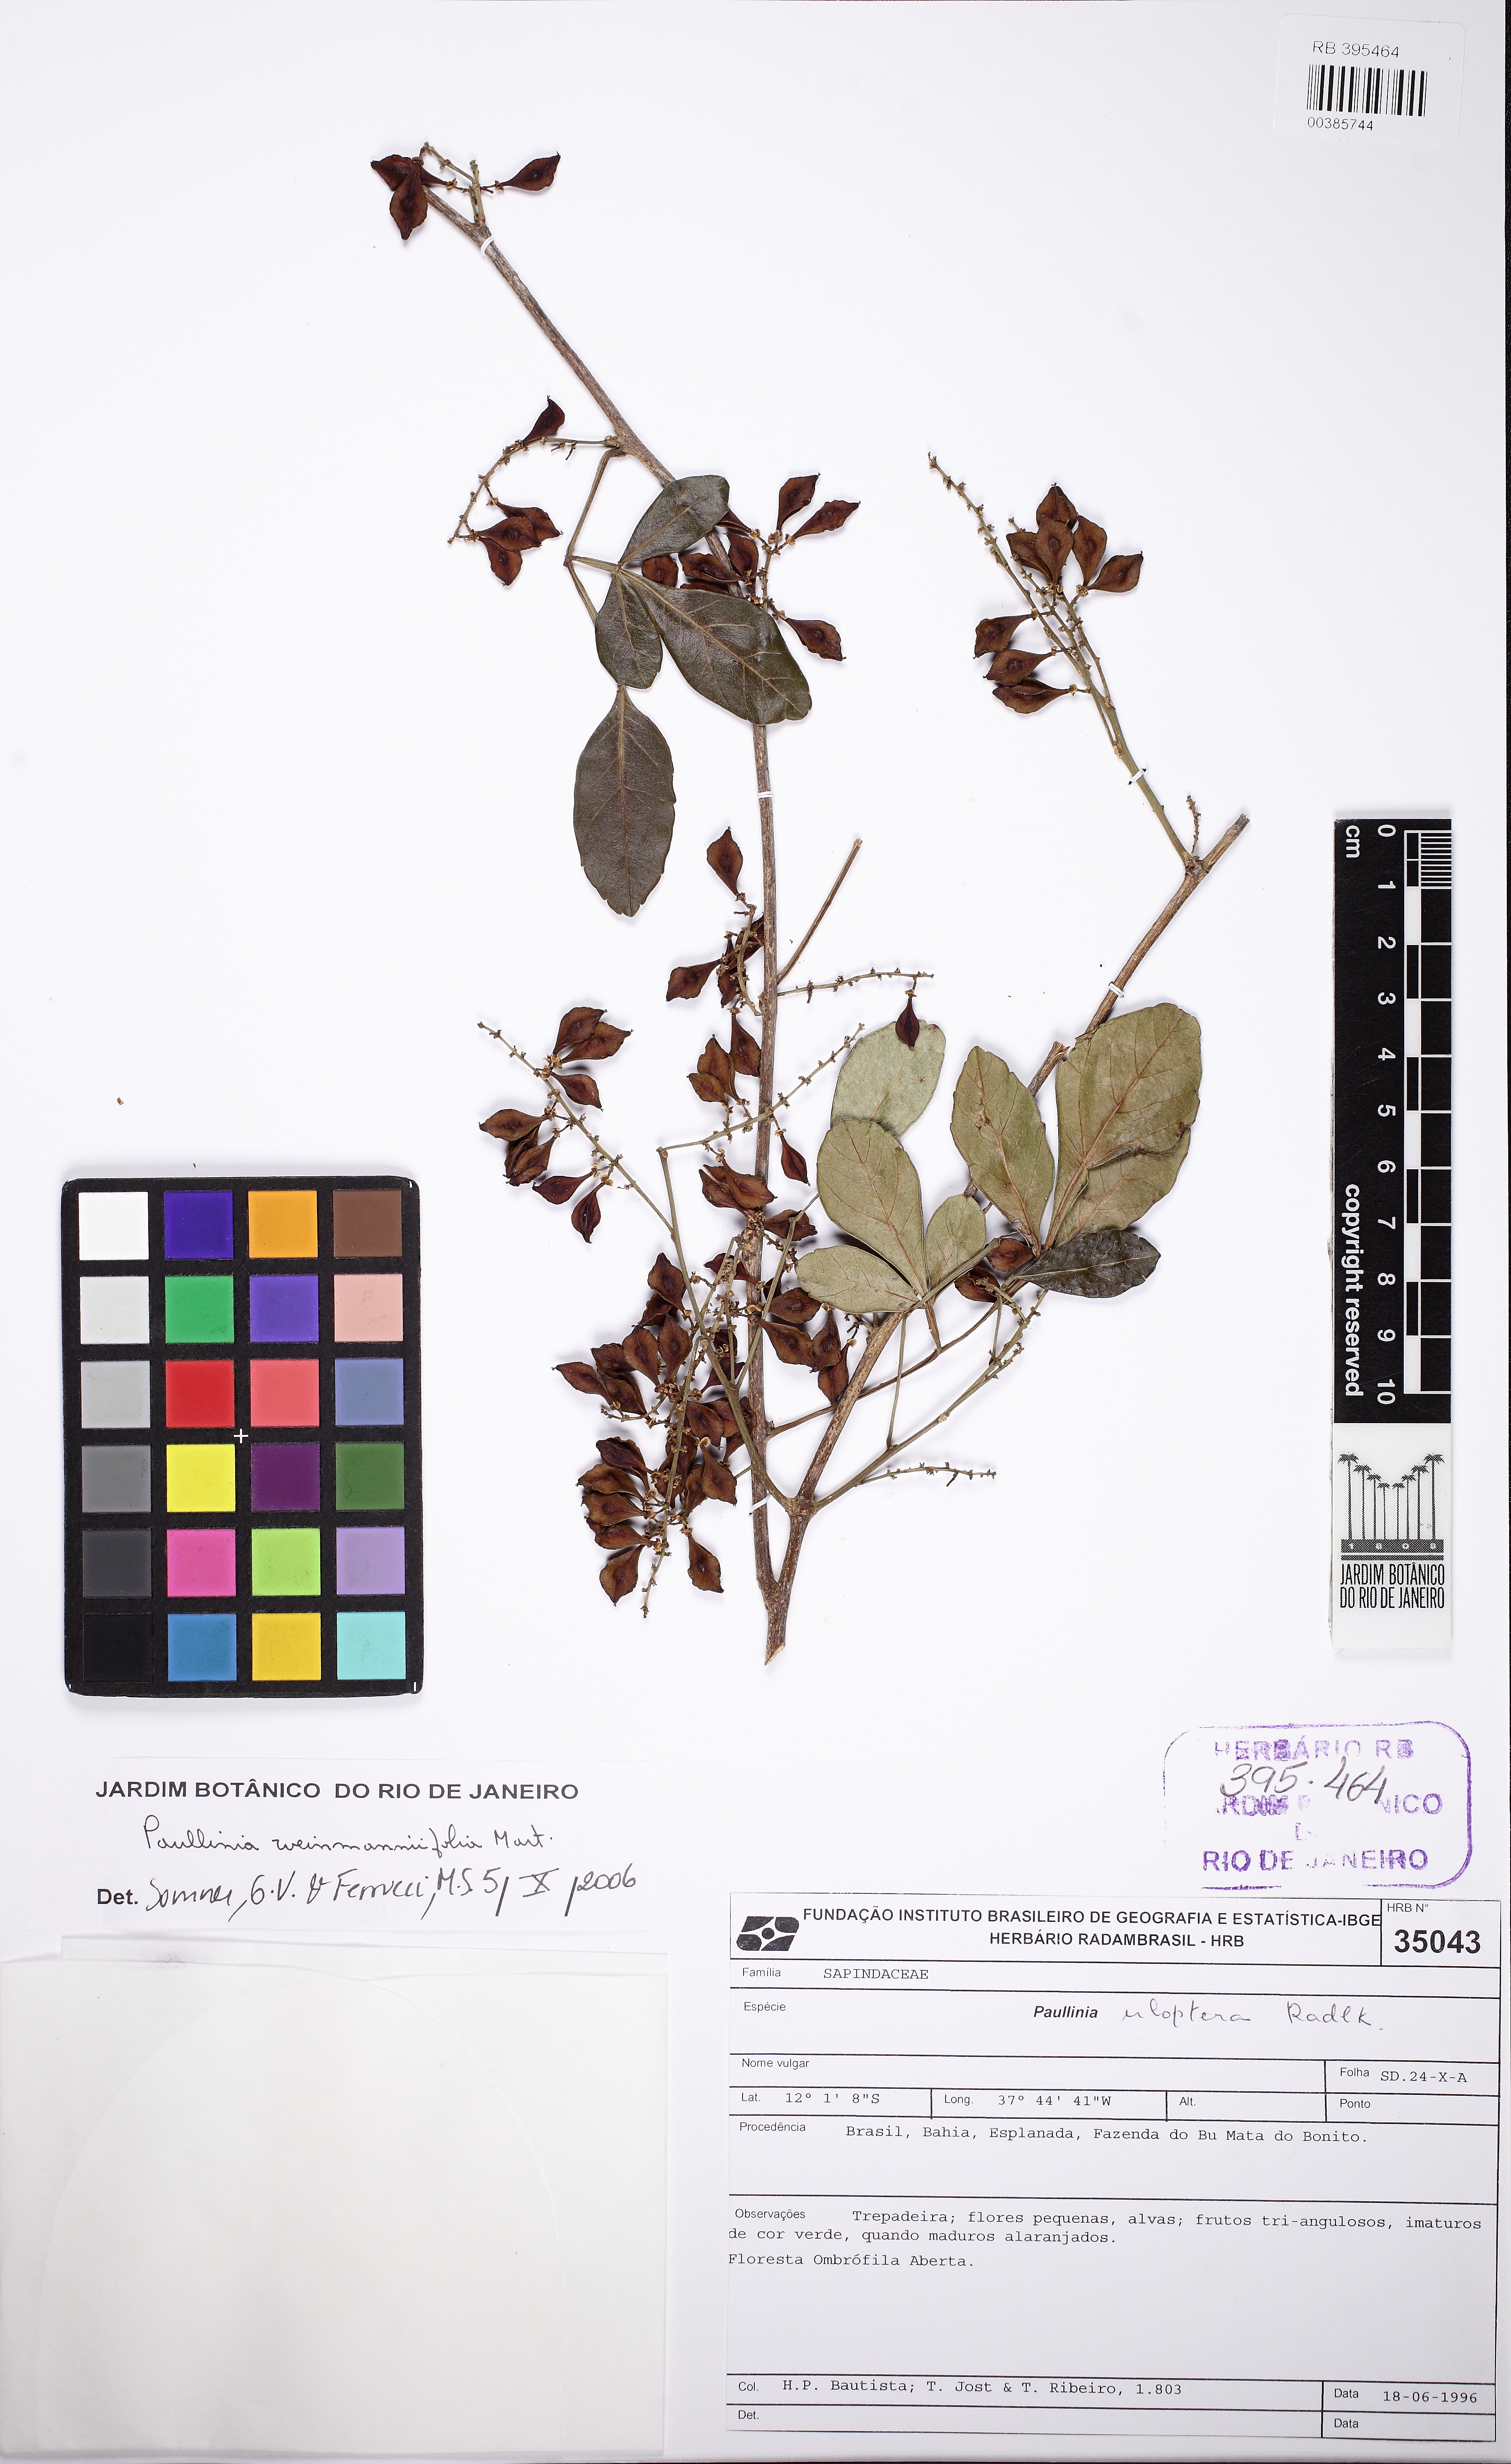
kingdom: Plantae
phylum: Tracheophyta
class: Magnoliopsida
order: Sapindales
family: Sapindaceae
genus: Paullinia
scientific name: Paullinia weinmanniifolia
